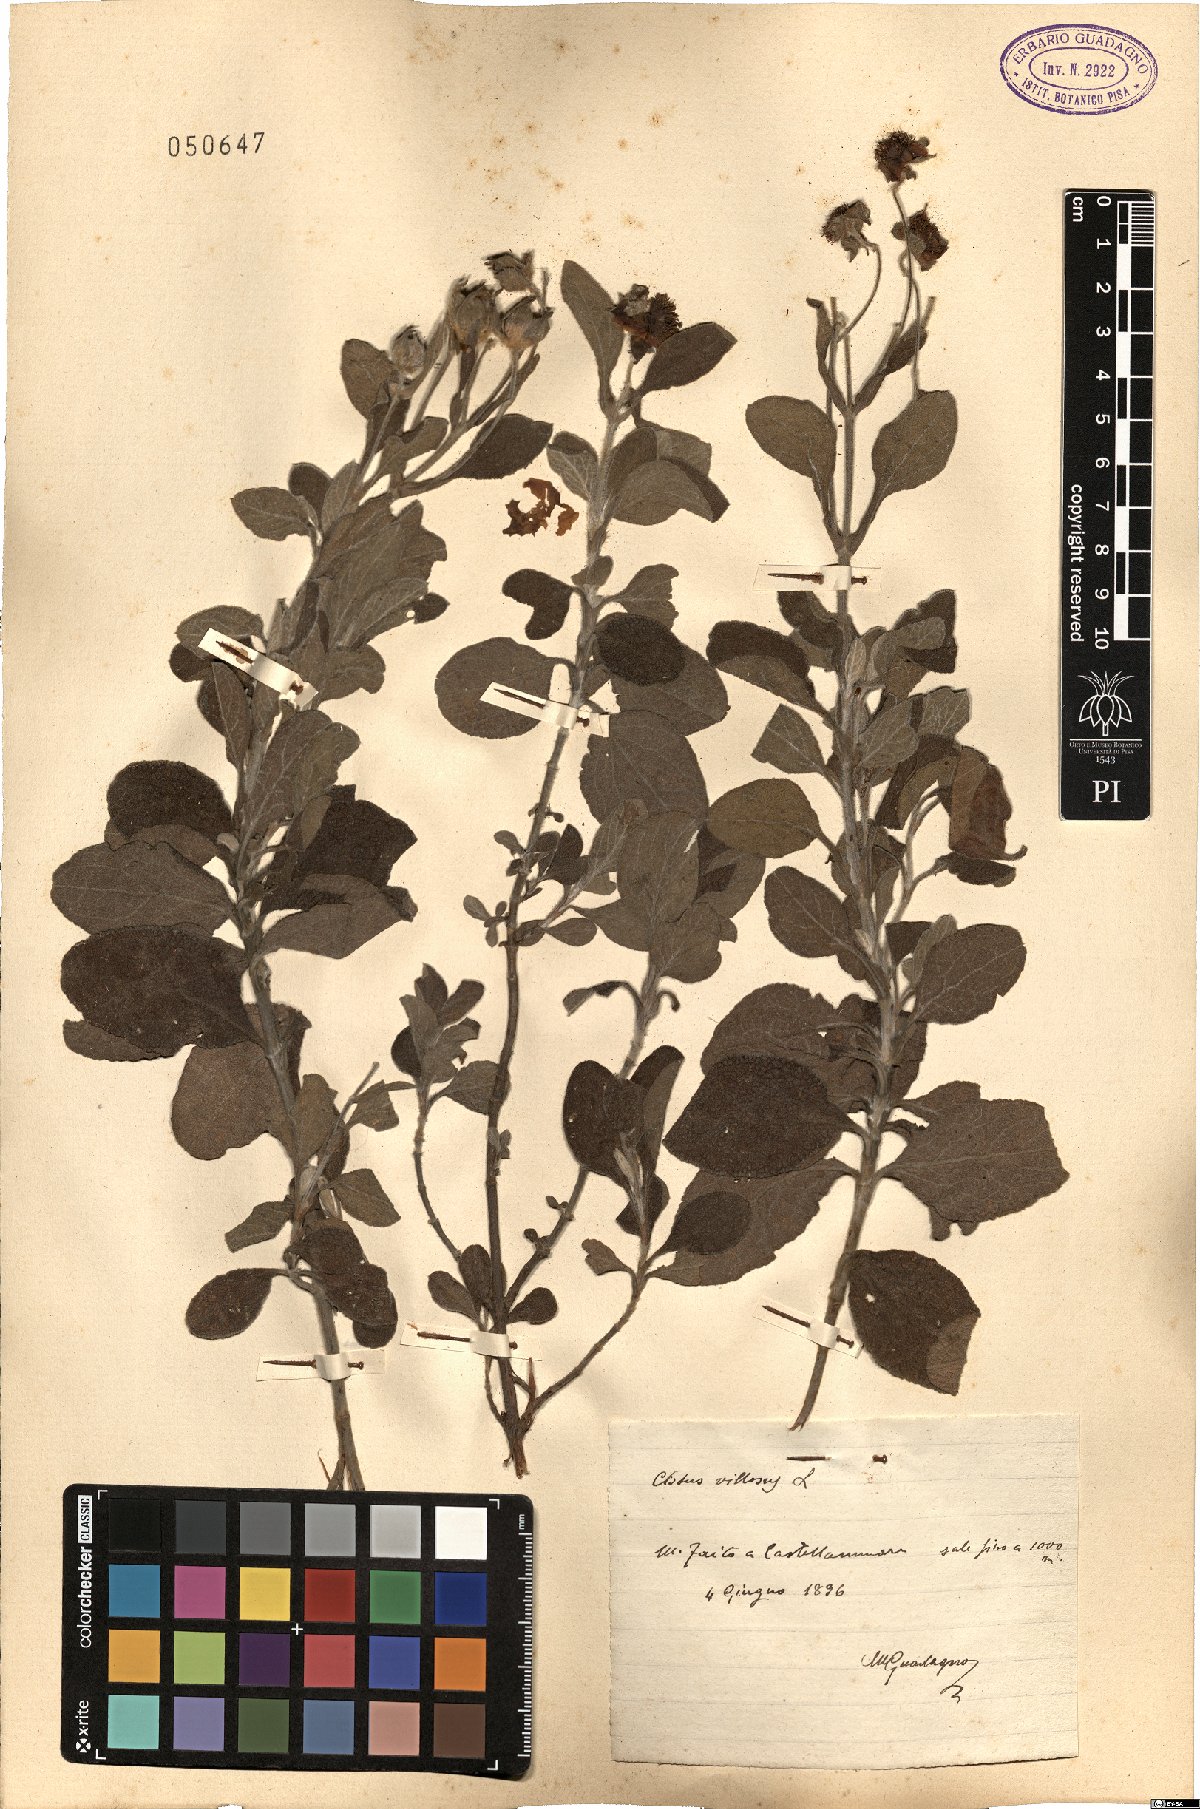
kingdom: Plantae
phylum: Tracheophyta
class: Magnoliopsida
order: Malvales
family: Cistaceae
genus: Cistus
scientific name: Cistus creticus
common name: Cretan rockrose
